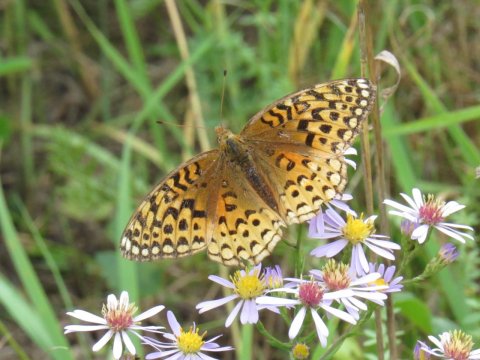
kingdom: Animalia
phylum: Arthropoda
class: Insecta
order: Lepidoptera
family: Nymphalidae
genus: Speyeria
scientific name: Speyeria aphrodite
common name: Aphrodite Fritillary
